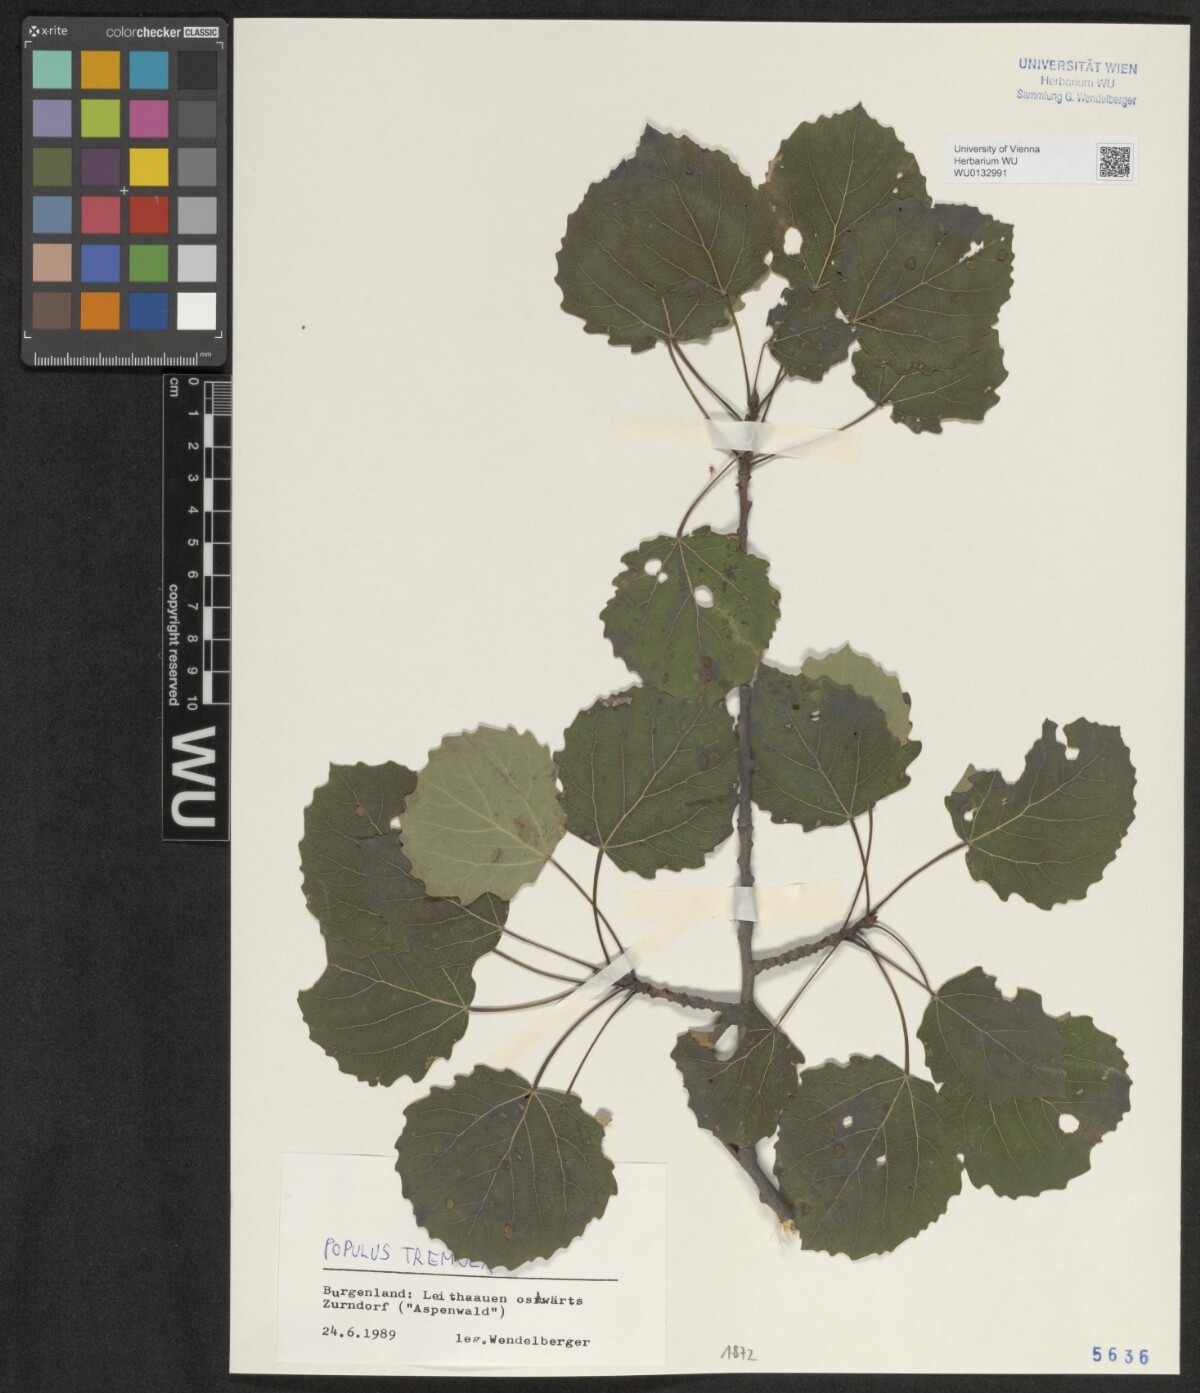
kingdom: Plantae
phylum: Tracheophyta
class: Magnoliopsida
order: Malpighiales
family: Salicaceae
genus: Populus
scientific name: Populus tremula
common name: European aspen
